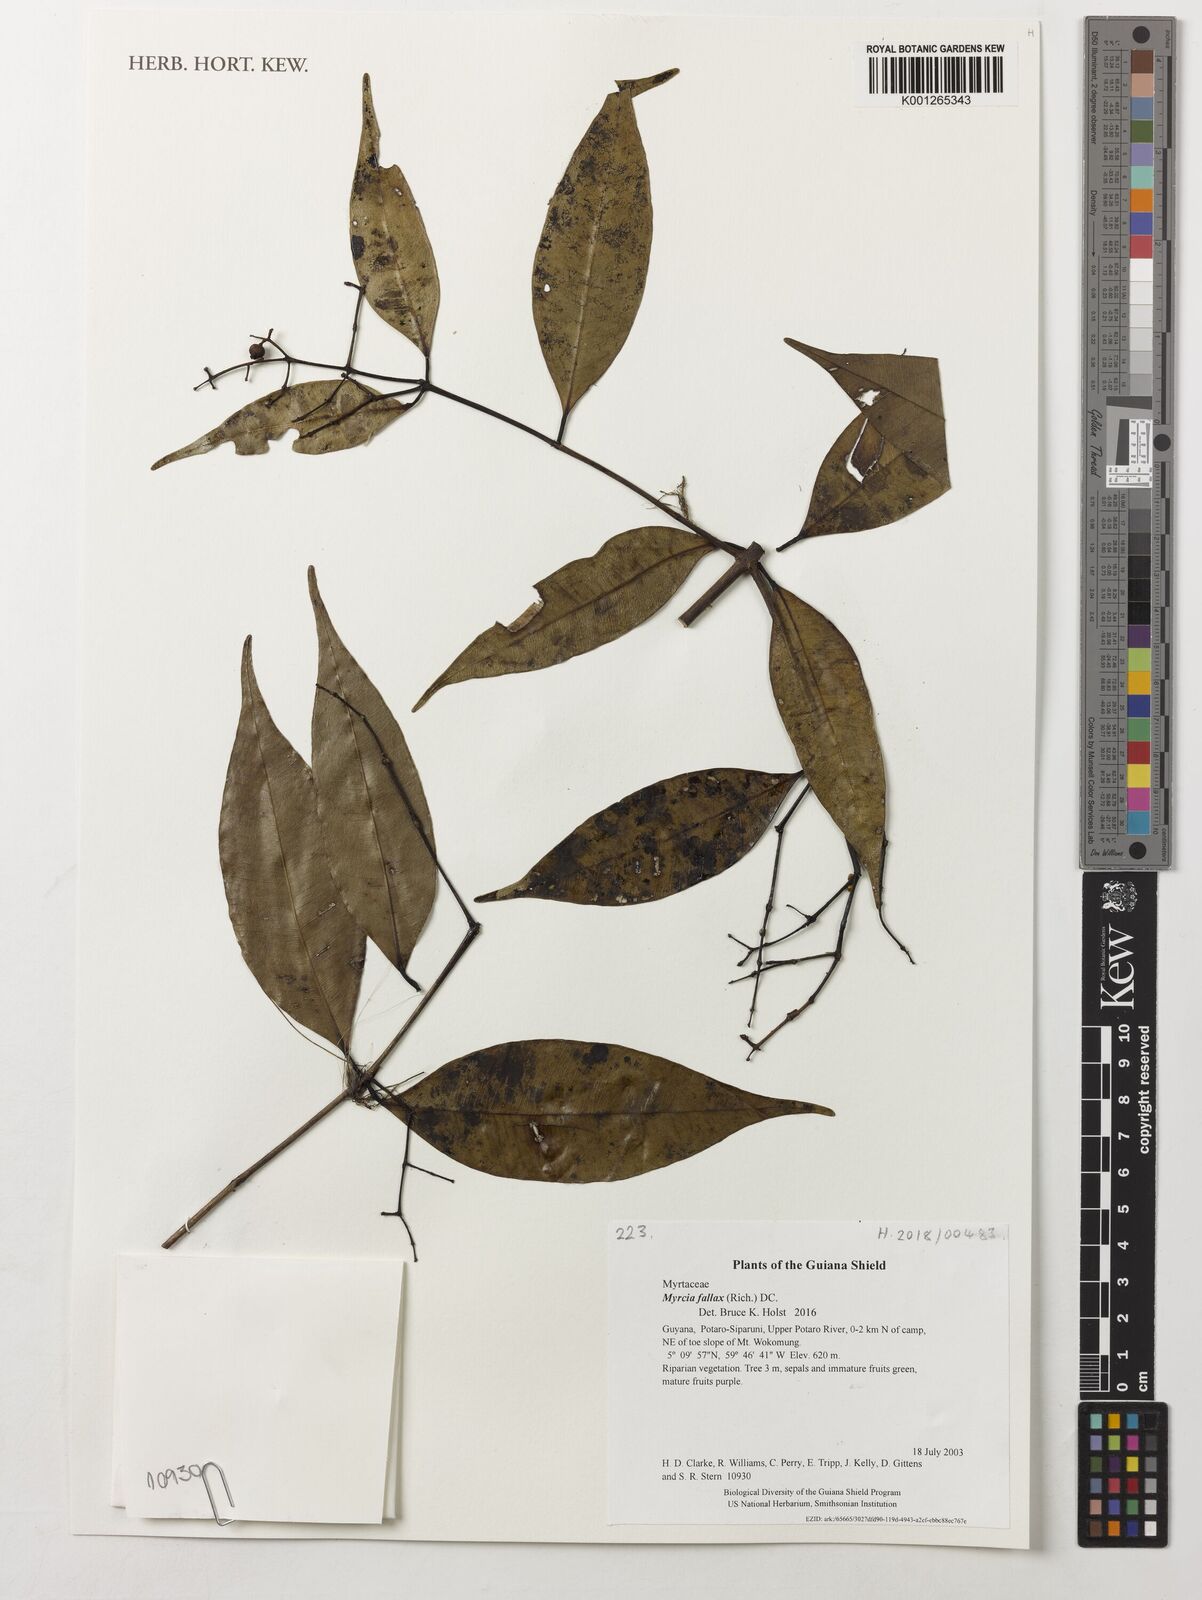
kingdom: Plantae
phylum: Tracheophyta
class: Magnoliopsida
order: Myrtales
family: Myrtaceae
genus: Myrcia
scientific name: Myrcia splendens
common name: Surinam cherry
